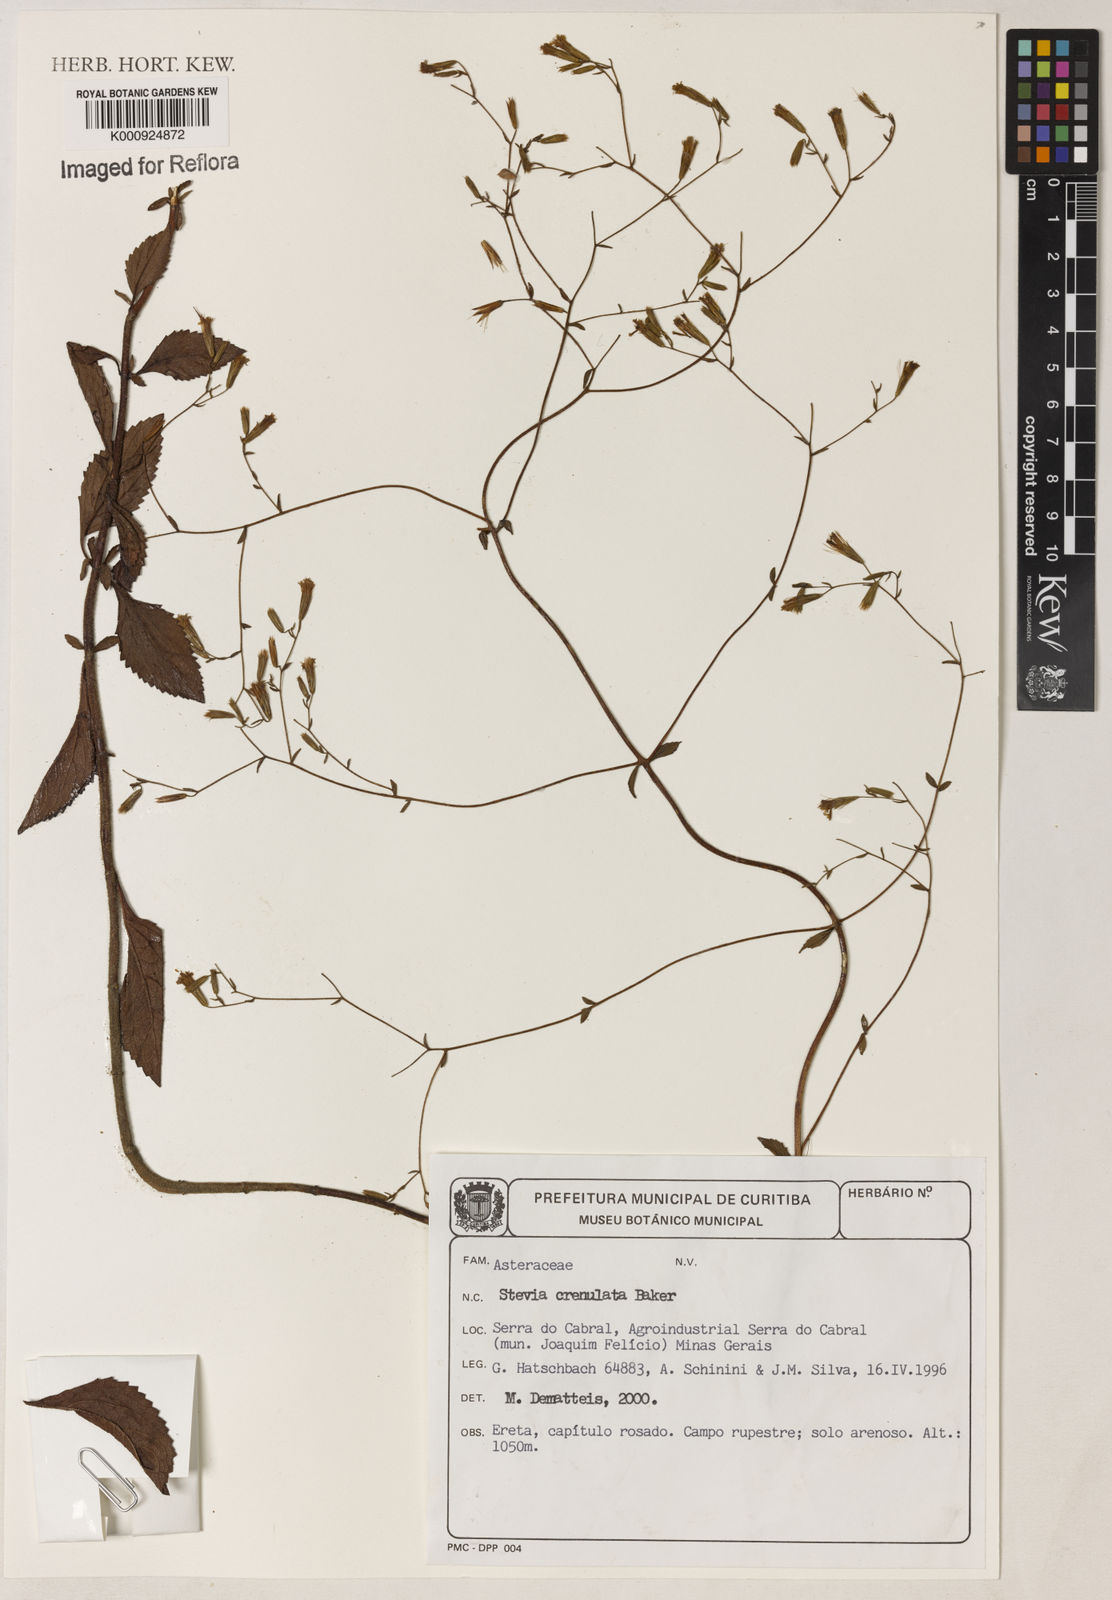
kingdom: Plantae
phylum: Tracheophyta
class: Magnoliopsida
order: Asterales
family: Asteraceae
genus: Stevia
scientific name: Stevia crenulata
